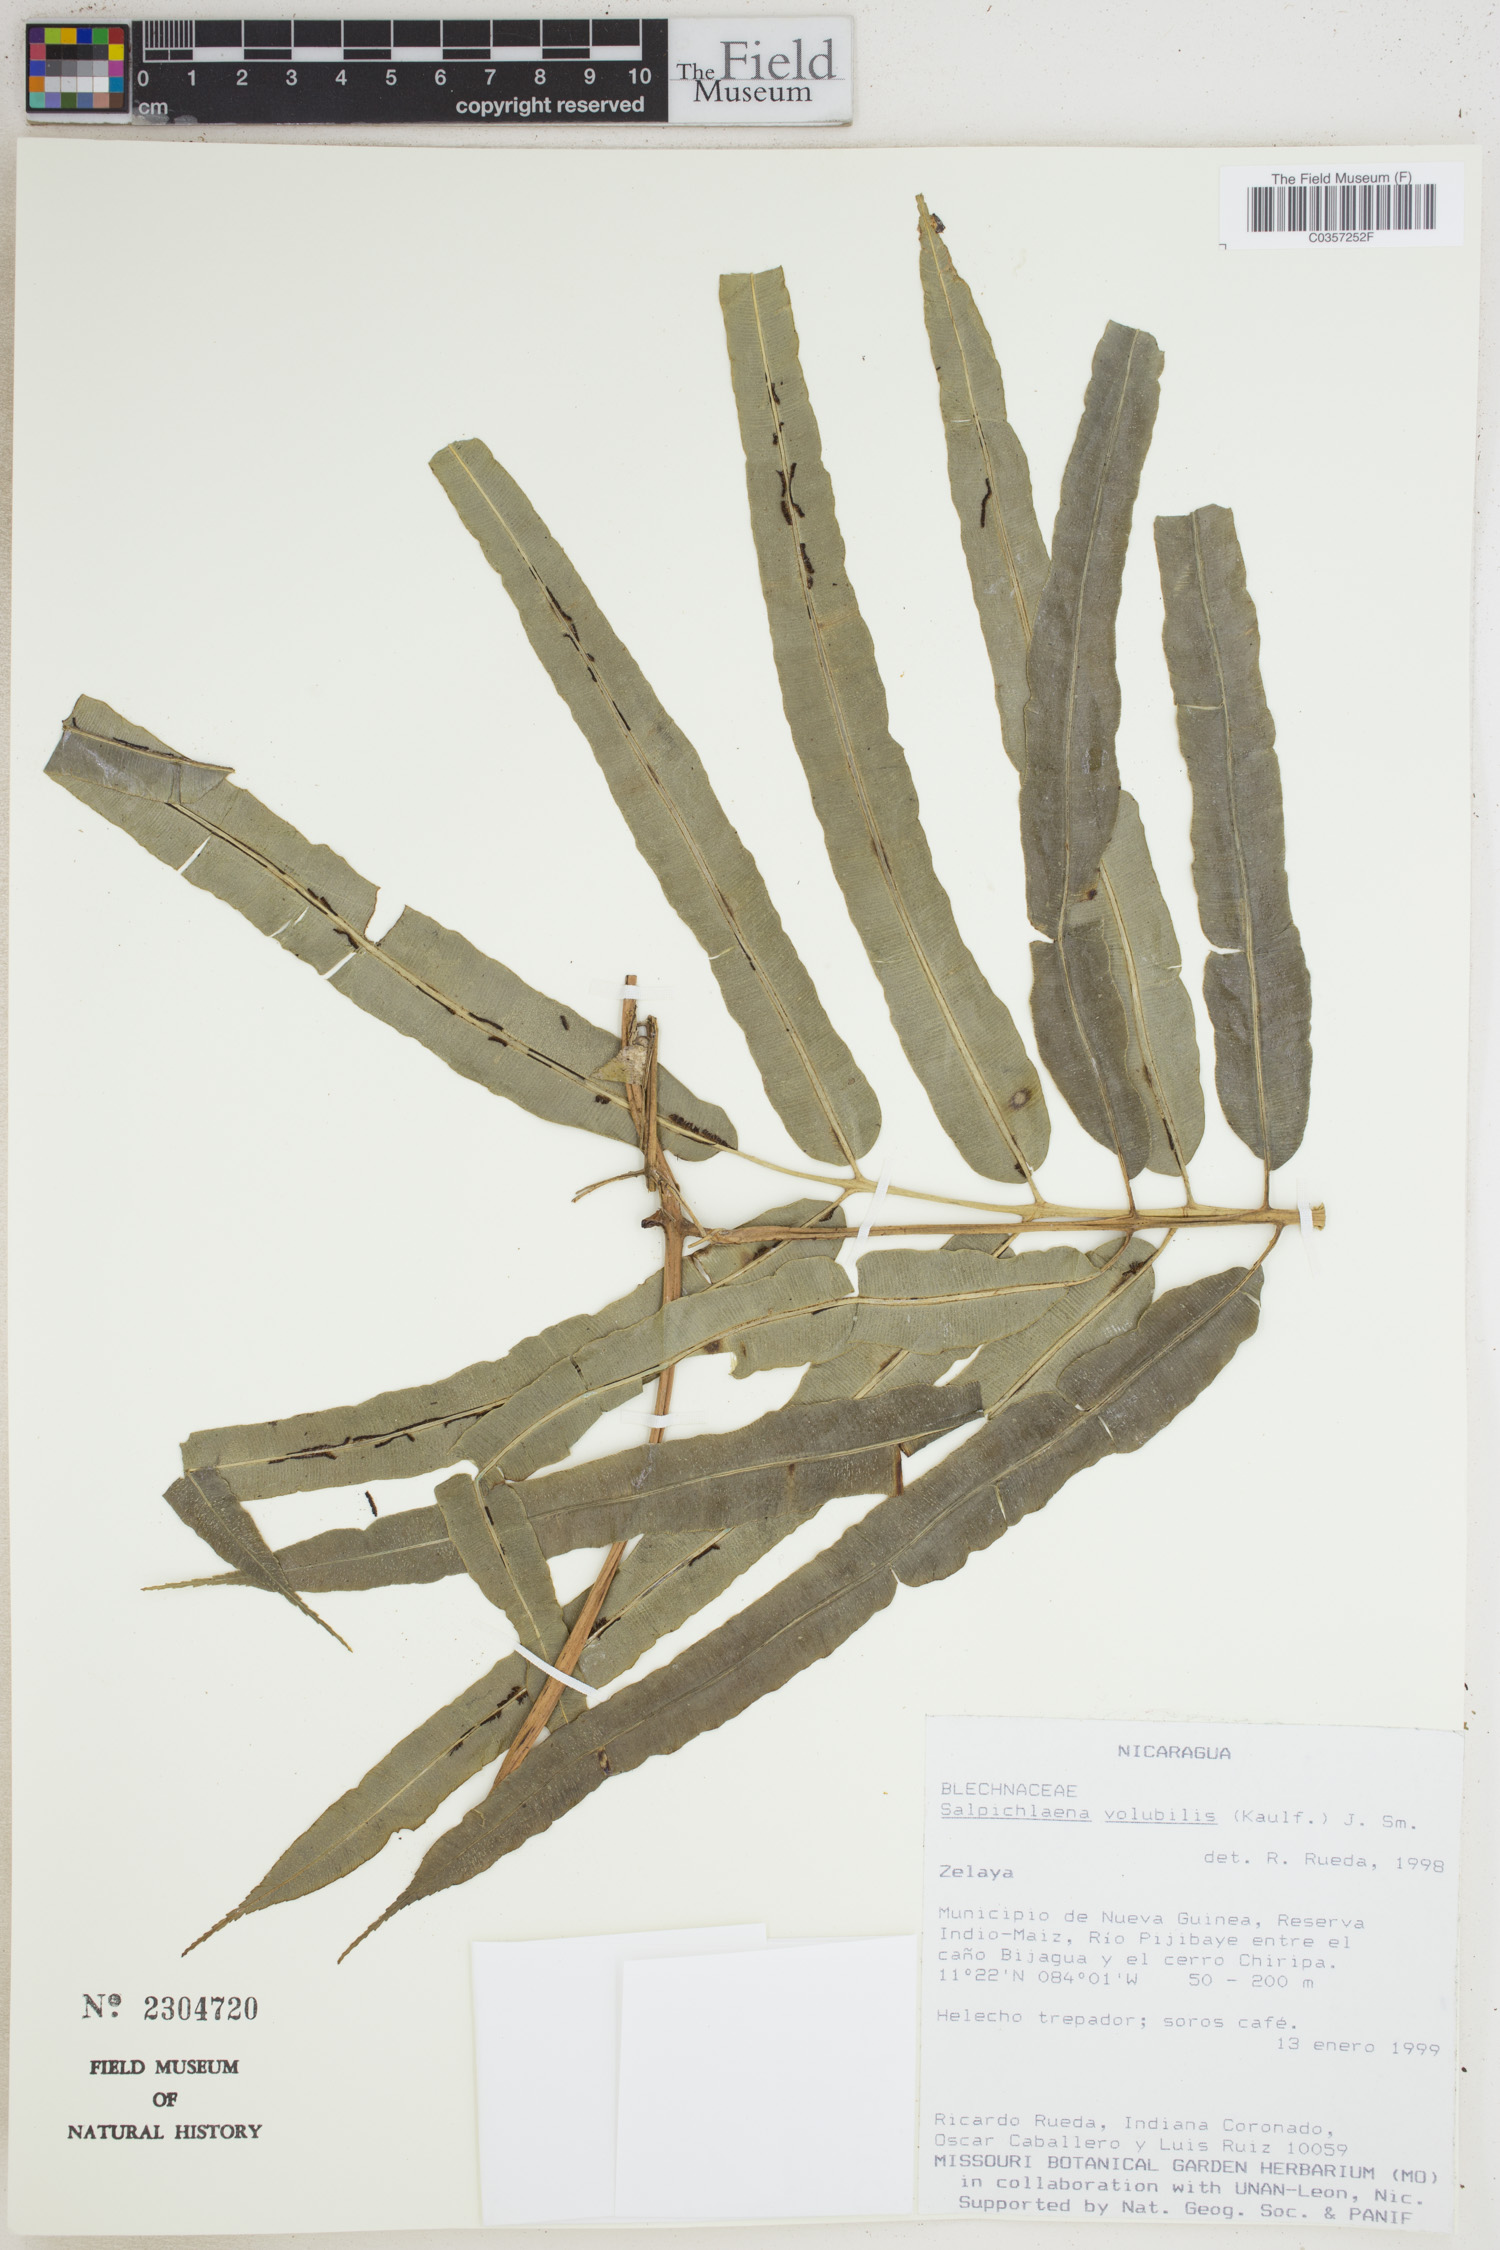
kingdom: Plantae
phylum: Tracheophyta
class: Polypodiopsida
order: Polypodiales
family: Blechnaceae
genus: Salpichlaena
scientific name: Salpichlaena volubilis
